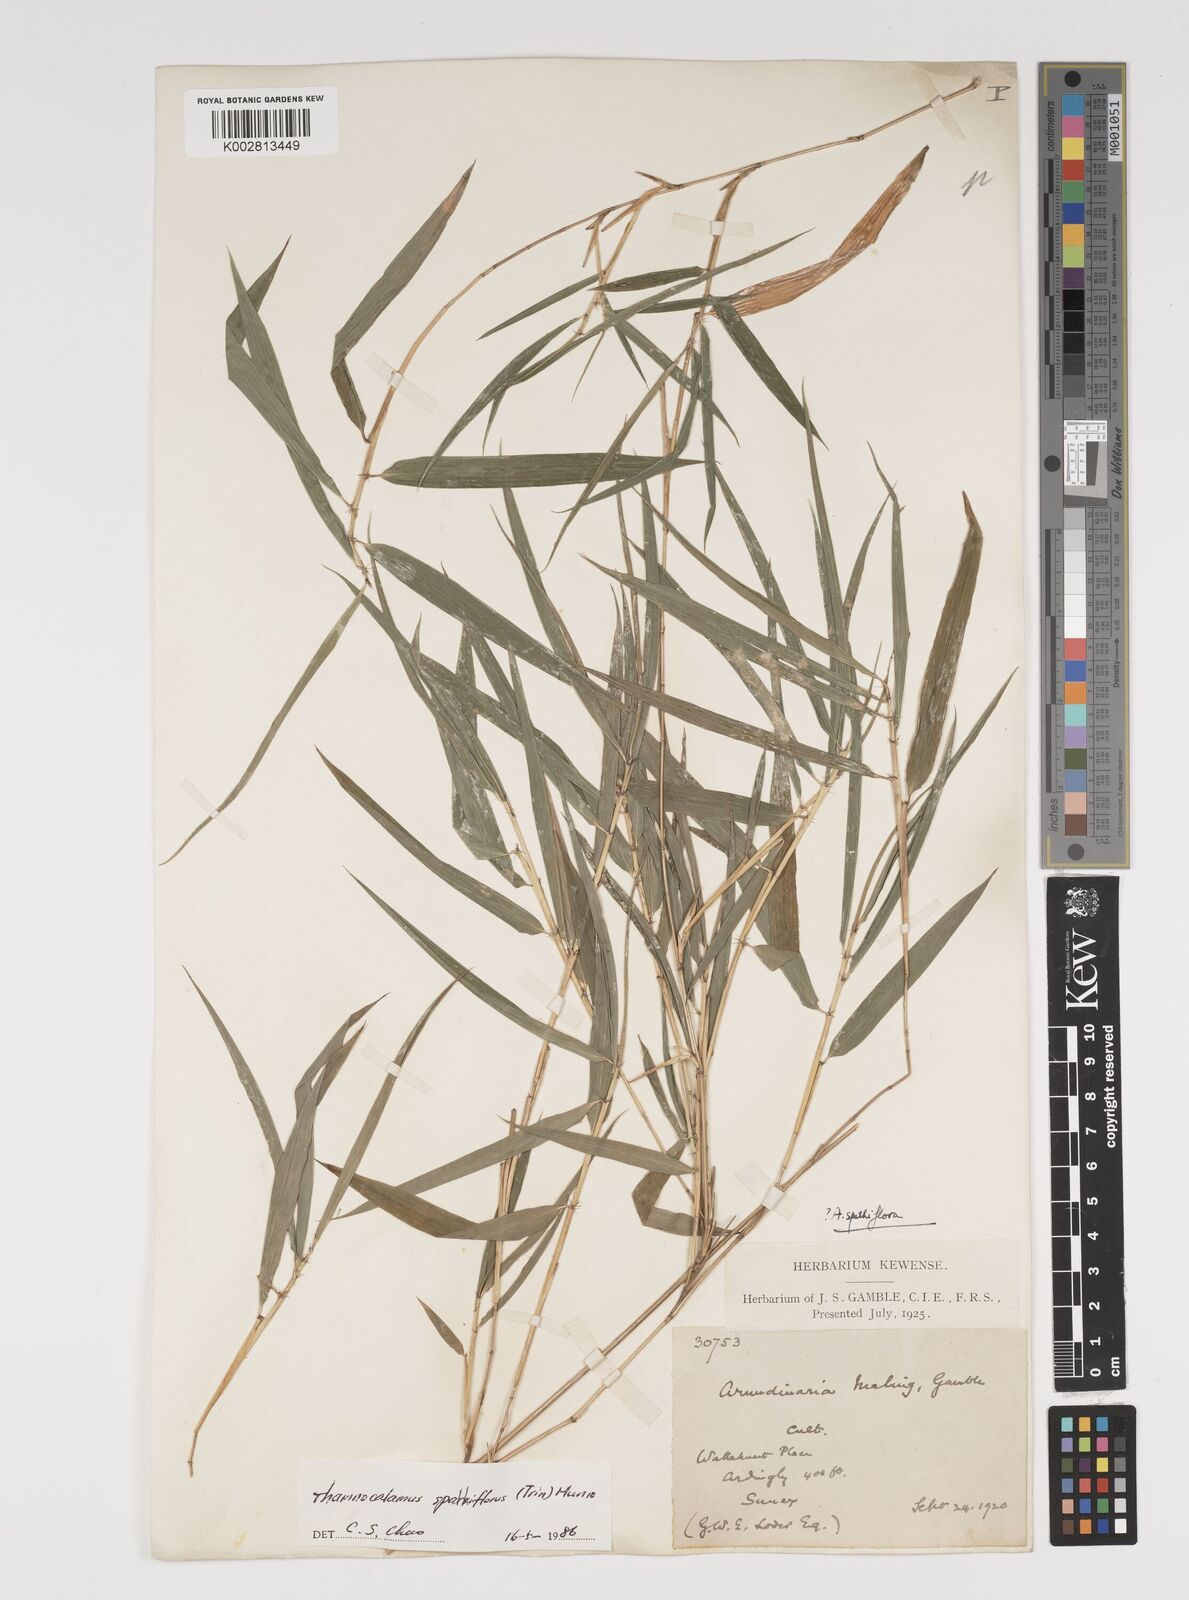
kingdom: Plantae
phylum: Tracheophyta
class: Liliopsida
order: Poales
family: Poaceae
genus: Thamnocalamus
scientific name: Thamnocalamus spathiflorus
